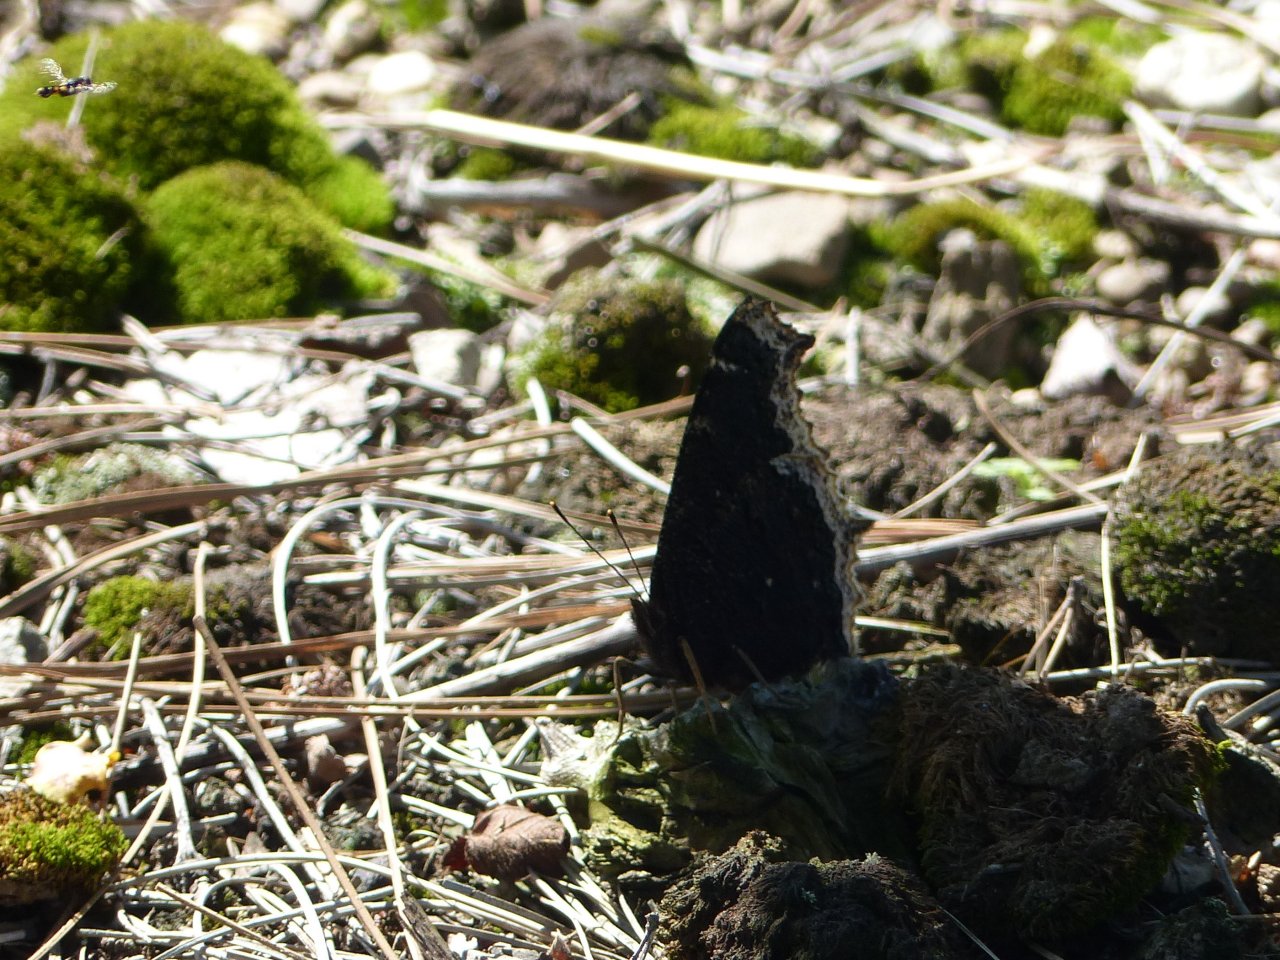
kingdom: Animalia
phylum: Arthropoda
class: Insecta
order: Lepidoptera
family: Nymphalidae
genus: Nymphalis
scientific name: Nymphalis antiopa
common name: Mourning Cloak
